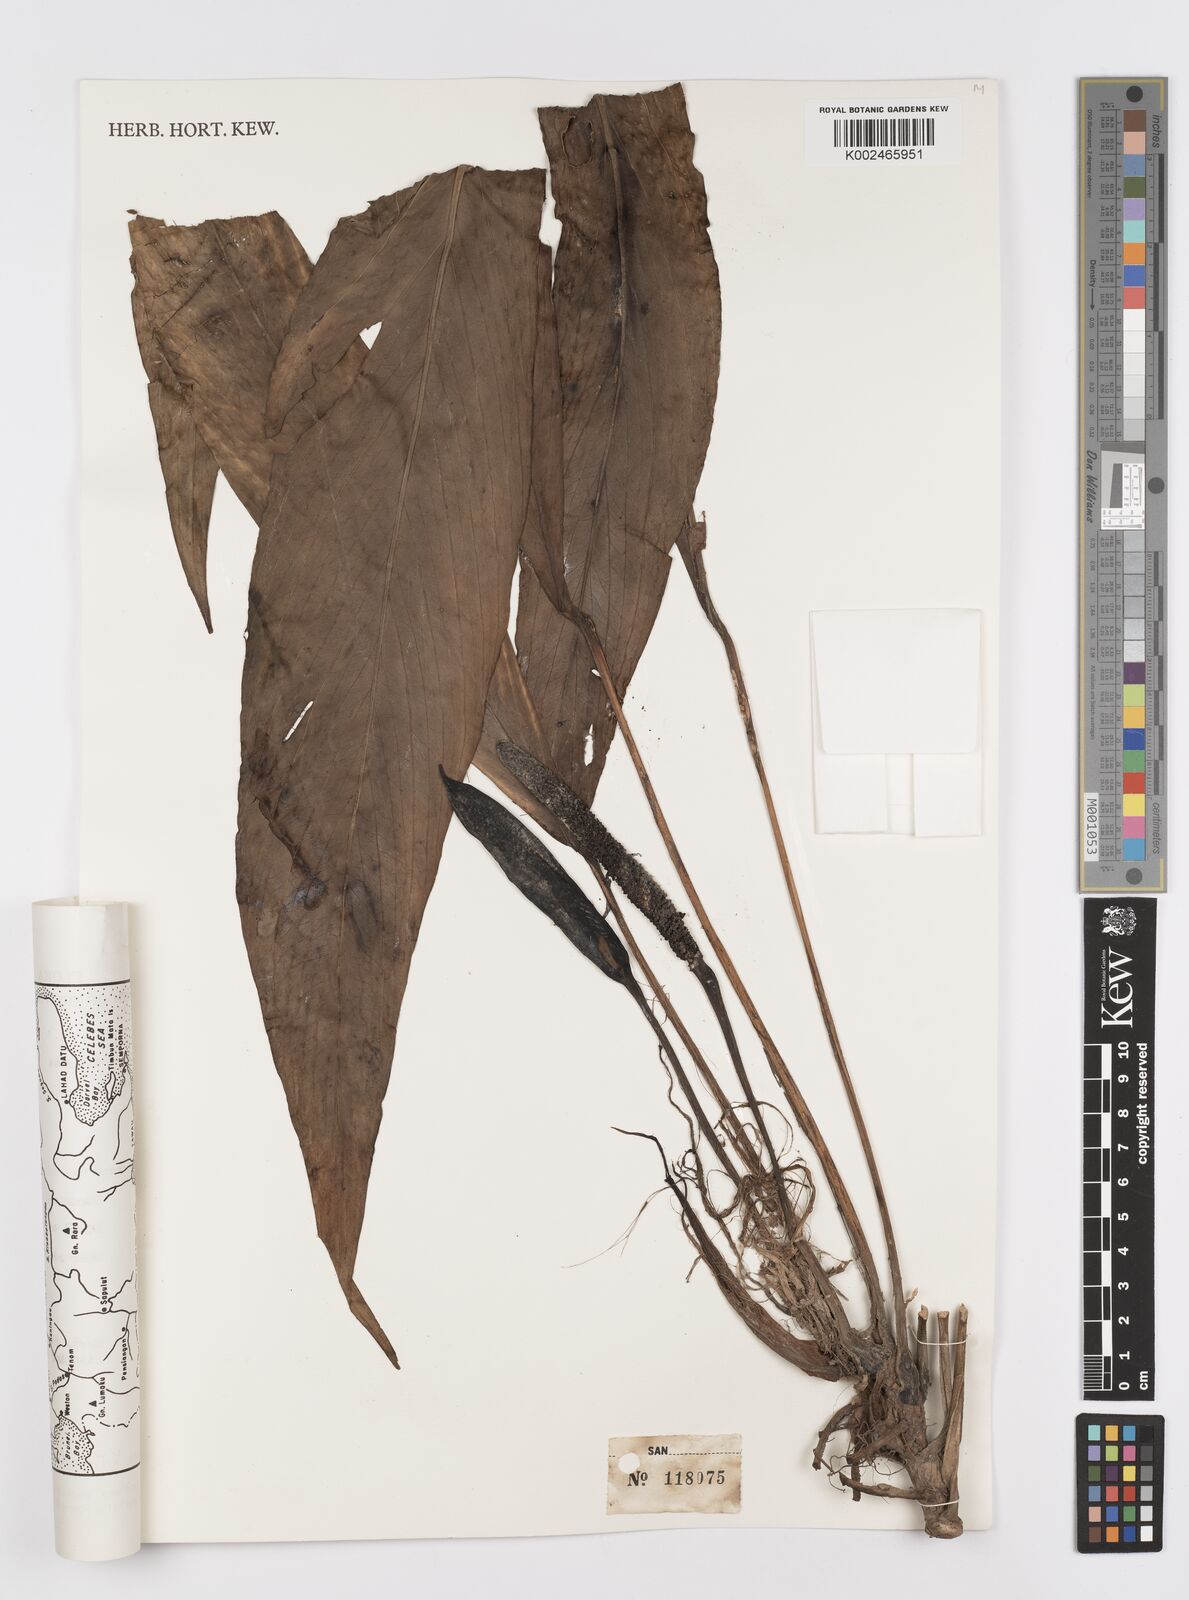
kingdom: Plantae
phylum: Tracheophyta
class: Liliopsida
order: Alismatales
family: Araceae
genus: Rhaphidophora
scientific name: Rhaphidophora beccarii
